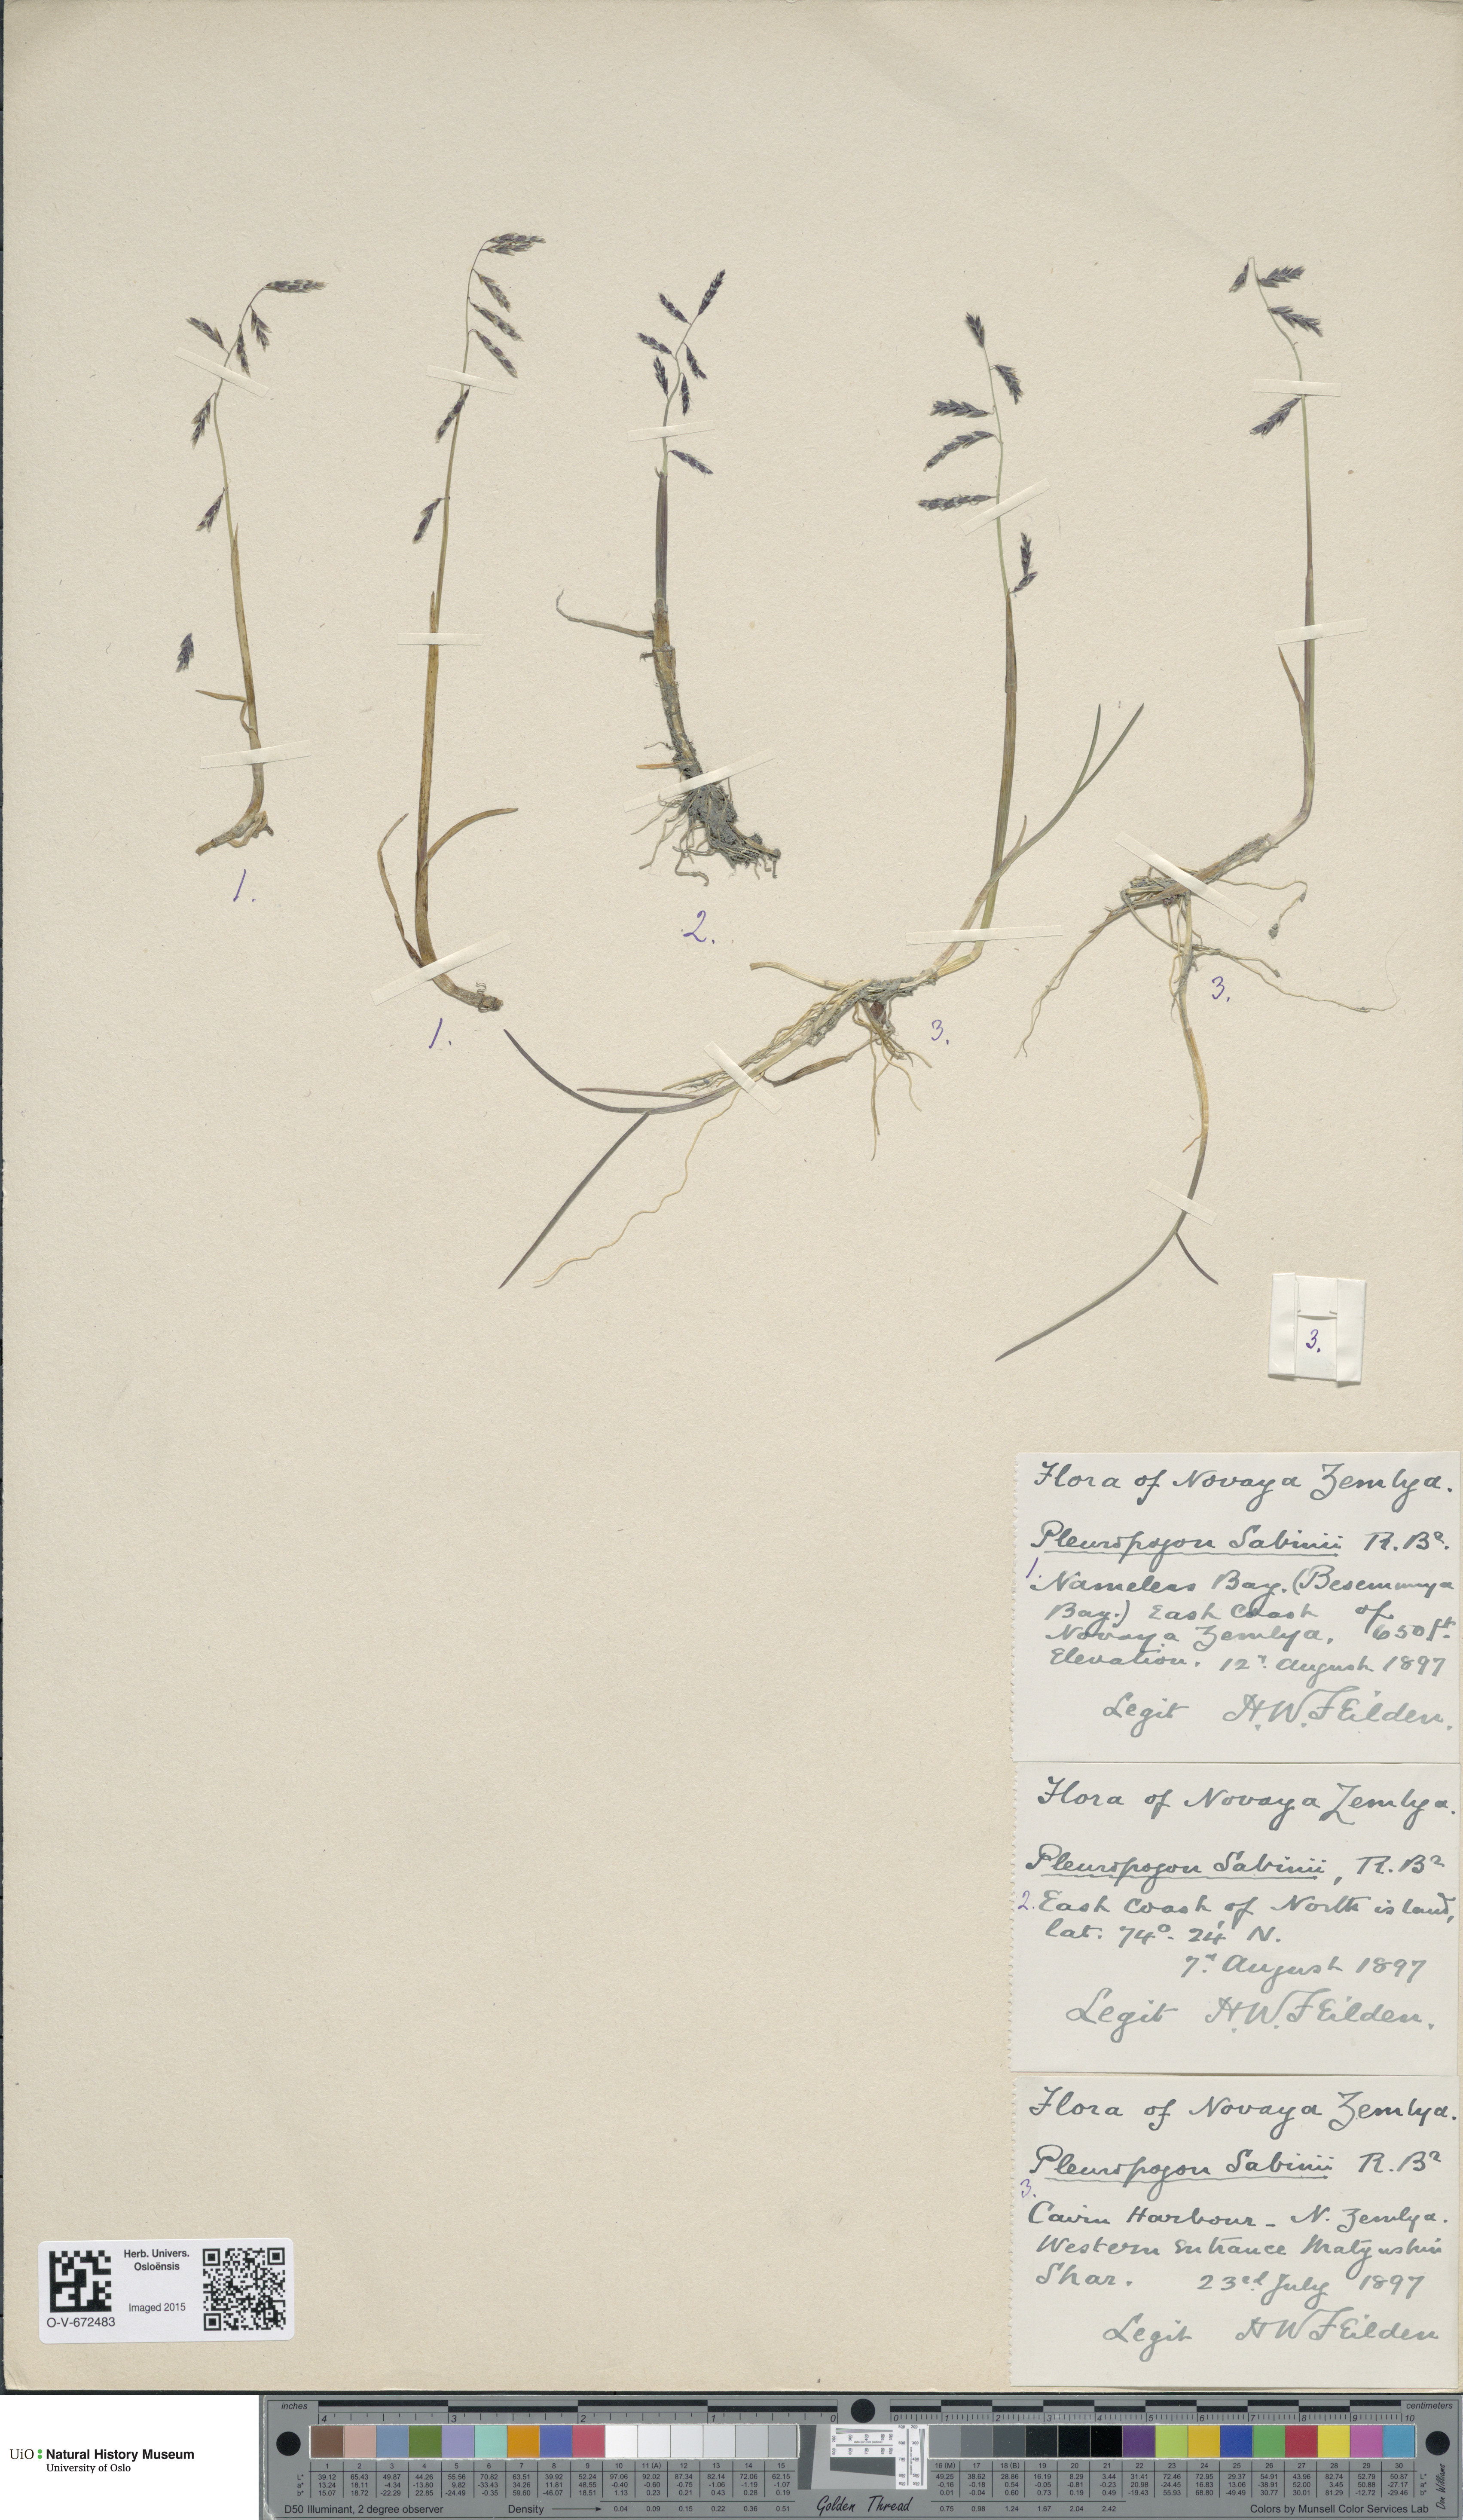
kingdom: Plantae
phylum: Tracheophyta
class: Liliopsida
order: Poales
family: Poaceae
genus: Pleuropogon
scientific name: Pleuropogon sabinei
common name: Sabine's false semaphoregrass
